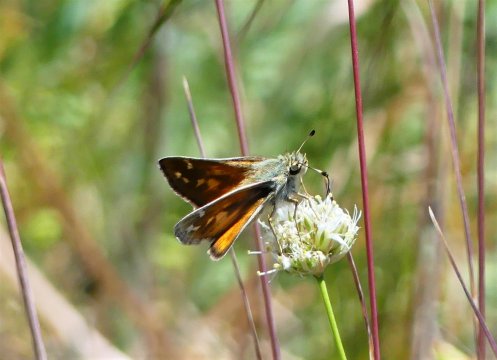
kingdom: Animalia
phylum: Arthropoda
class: Insecta
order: Lepidoptera
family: Hesperiidae
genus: Hesperia
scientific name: Hesperia comma
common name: Western Branded Skipper
